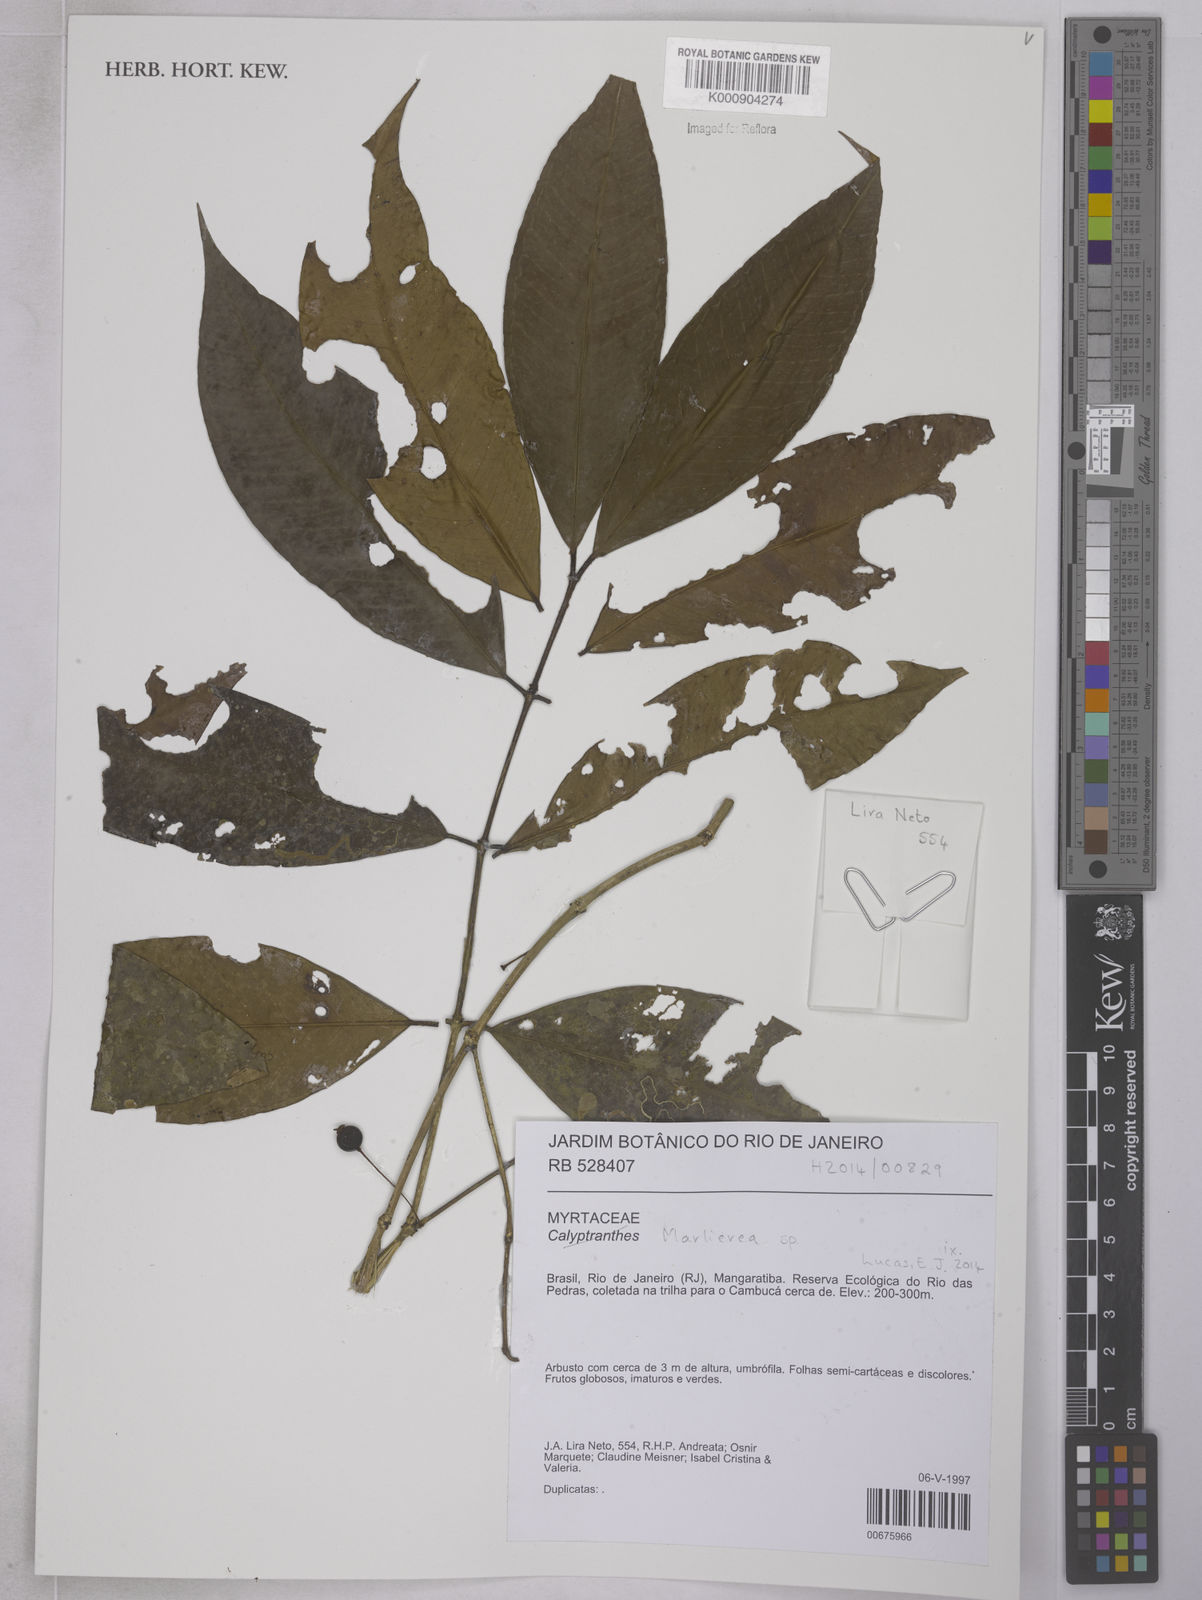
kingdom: Plantae
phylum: Tracheophyta
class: Magnoliopsida
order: Myrtales
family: Myrtaceae
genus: Myrcia
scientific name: Myrcia
